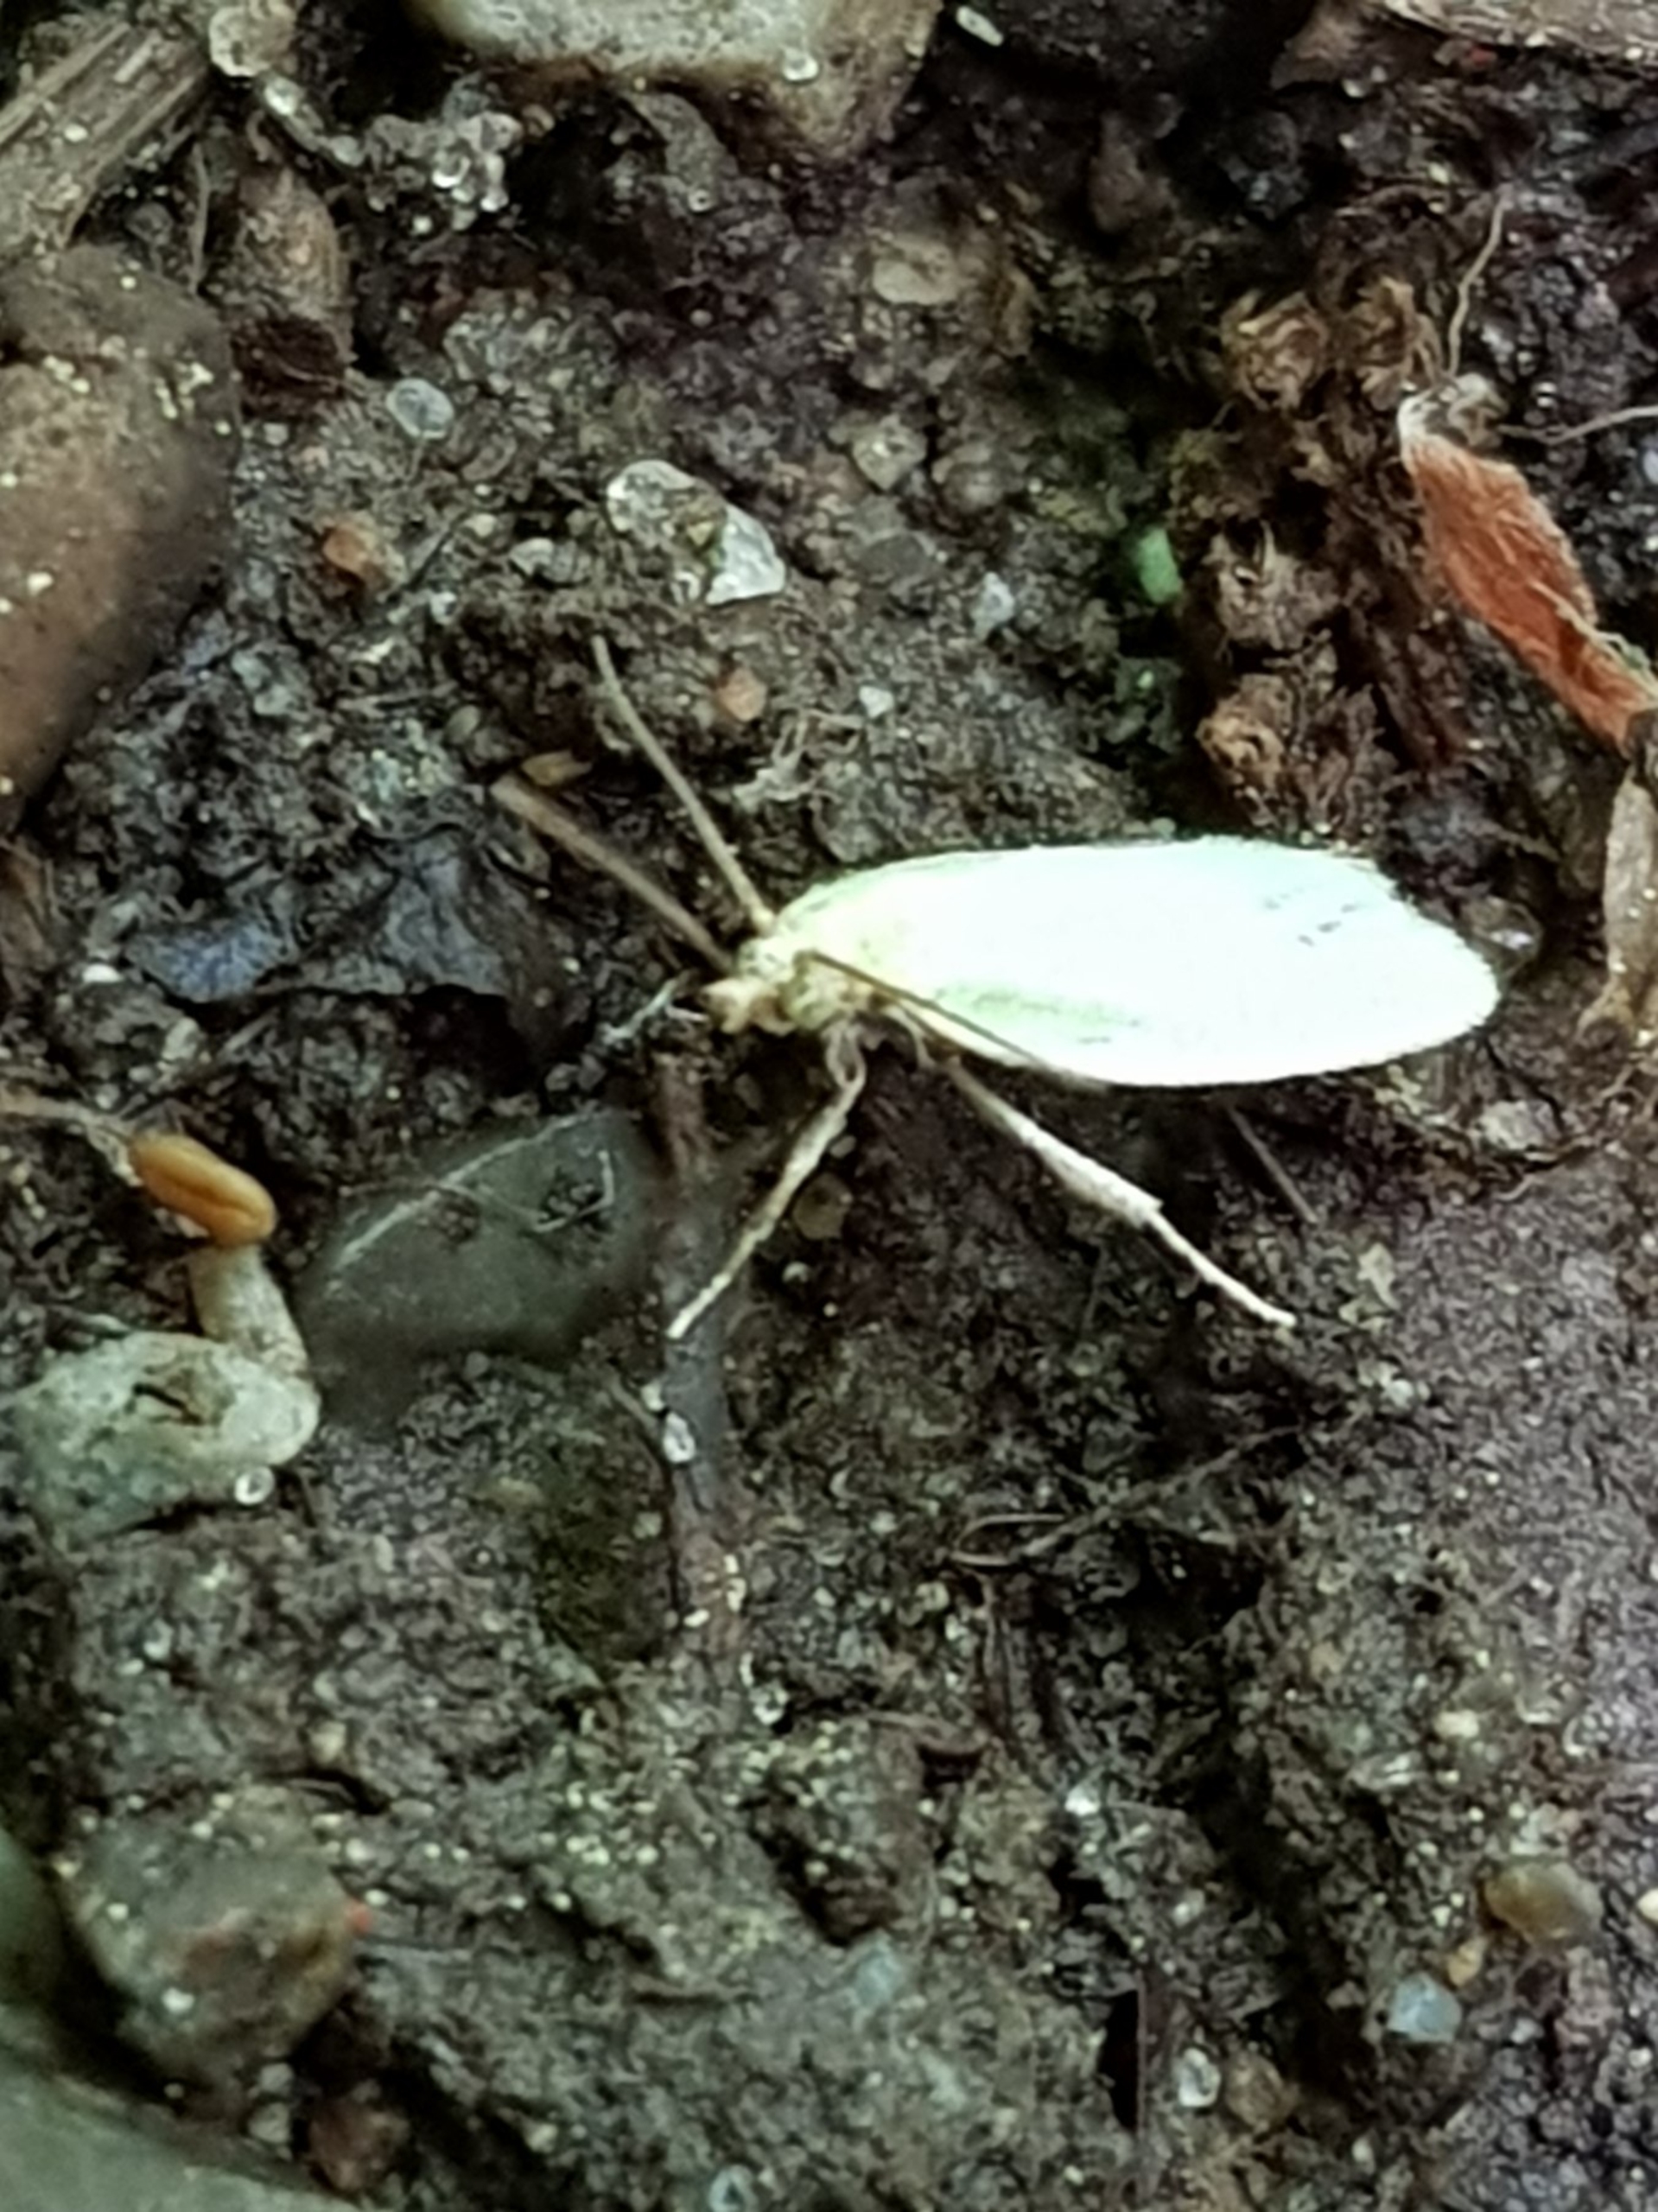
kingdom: Animalia
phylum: Arthropoda
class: Insecta
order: Lepidoptera
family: Tortricidae
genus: Tortrix
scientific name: Tortrix viridana
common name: Egevikler
